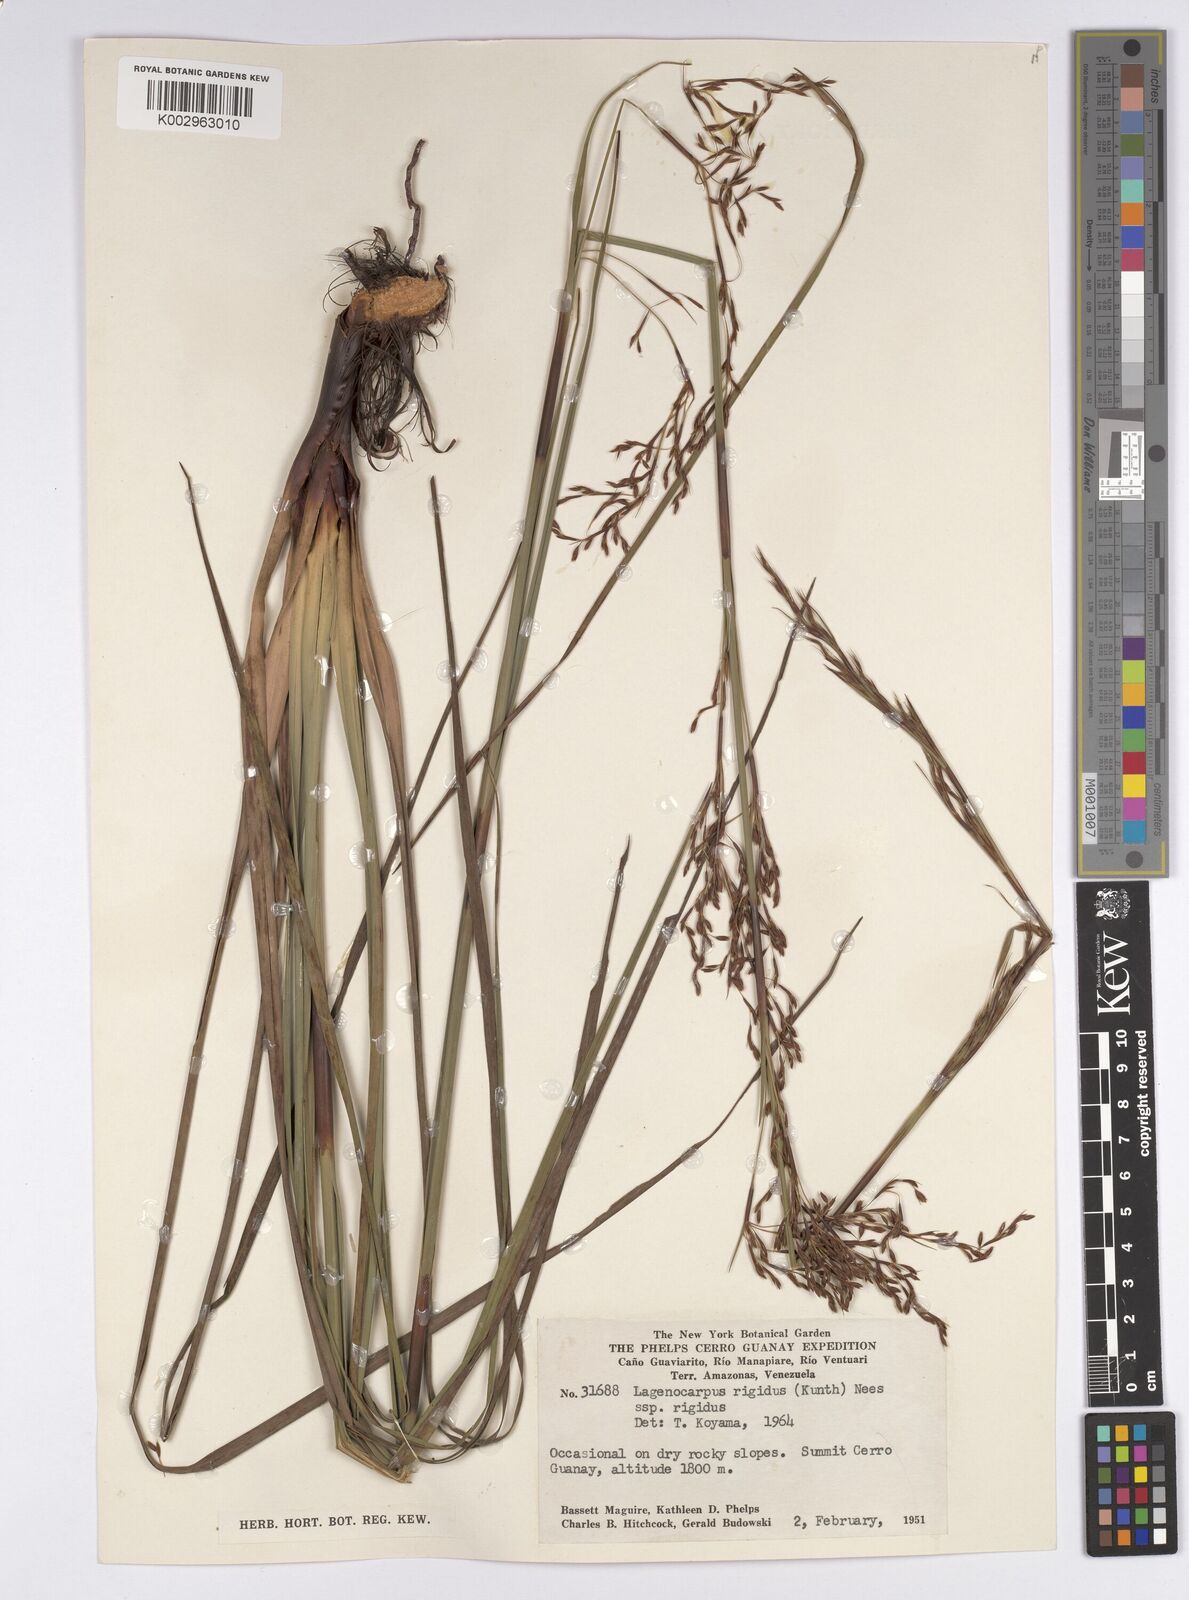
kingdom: Plantae
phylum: Tracheophyta
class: Liliopsida
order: Poales
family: Cyperaceae
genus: Lagenocarpus
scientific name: Lagenocarpus rigidus
